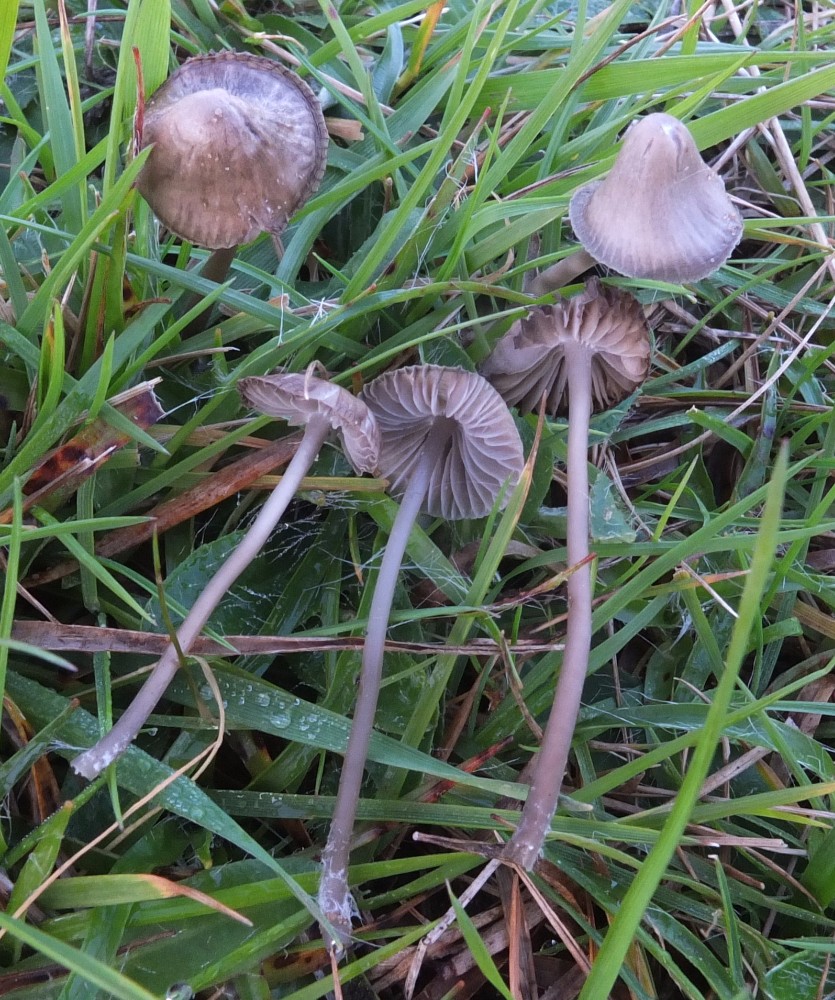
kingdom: Fungi
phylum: Basidiomycota
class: Agaricomycetes
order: Agaricales
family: Mycenaceae
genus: Mycena
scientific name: Mycena aetites
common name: plæne-huesvamp
